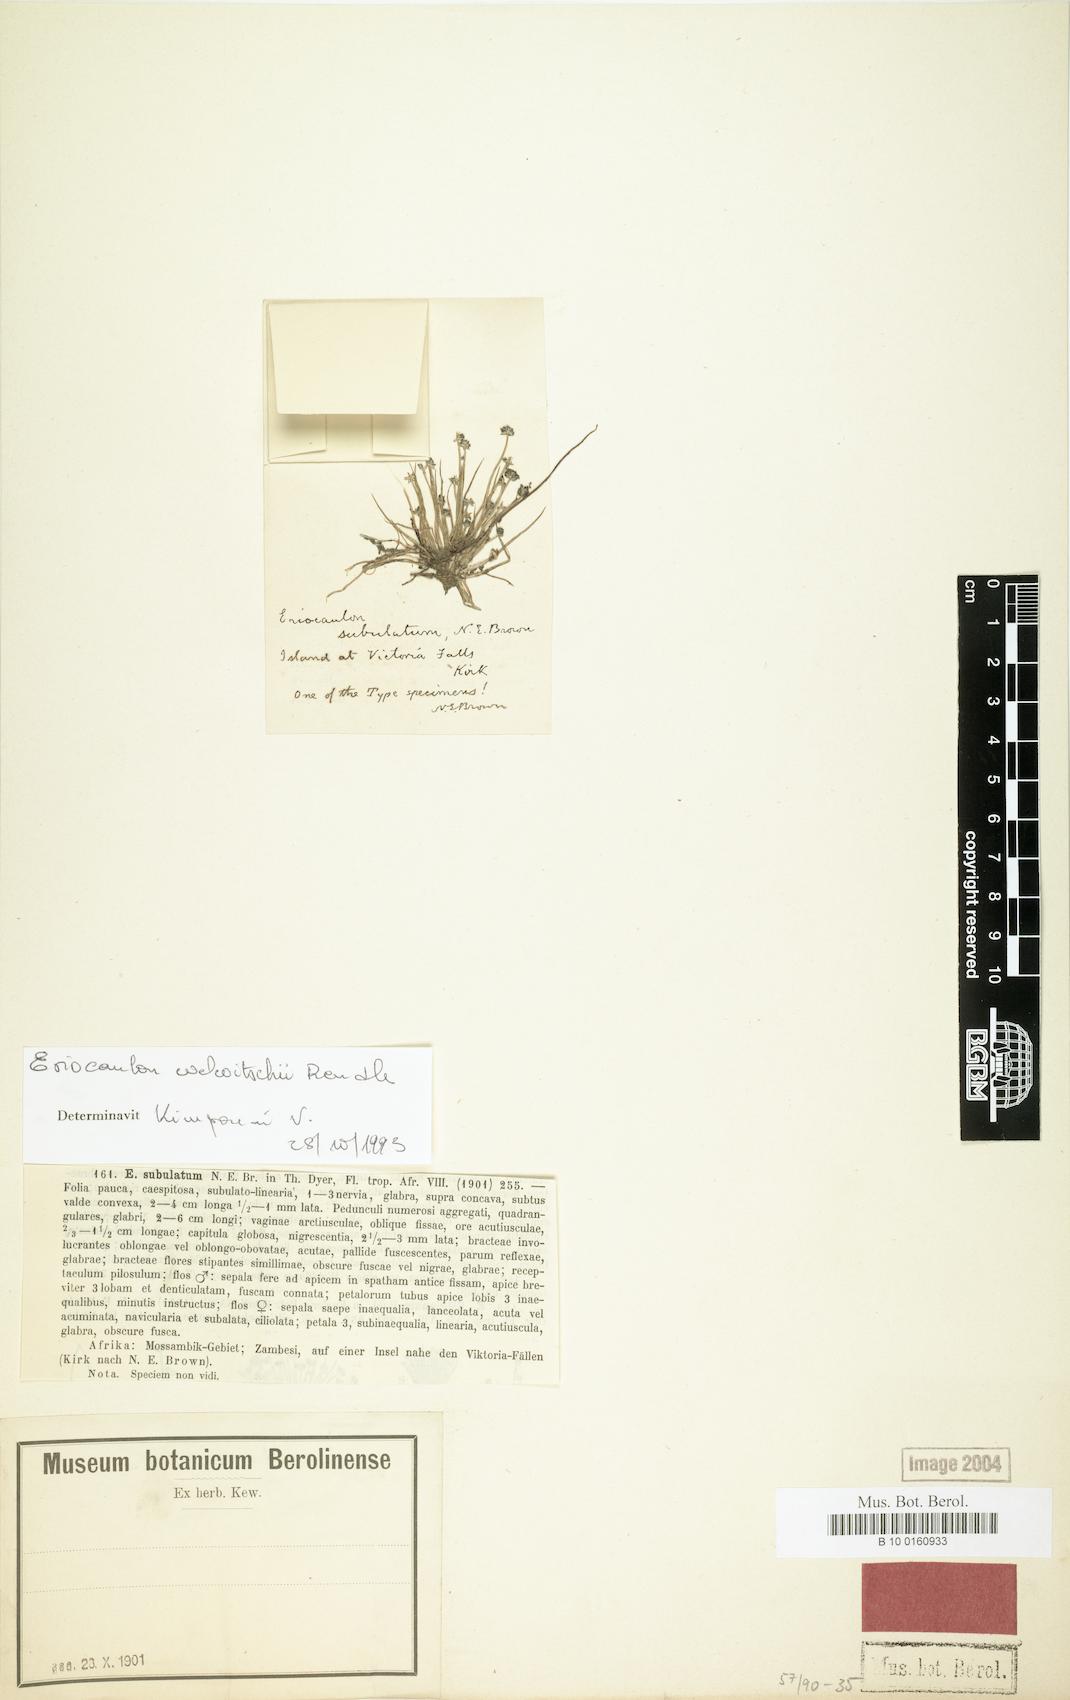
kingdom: Plantae
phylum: Tracheophyta
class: Liliopsida
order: Poales
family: Eriocaulaceae
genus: Eriocaulon
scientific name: Eriocaulon welwitschii
